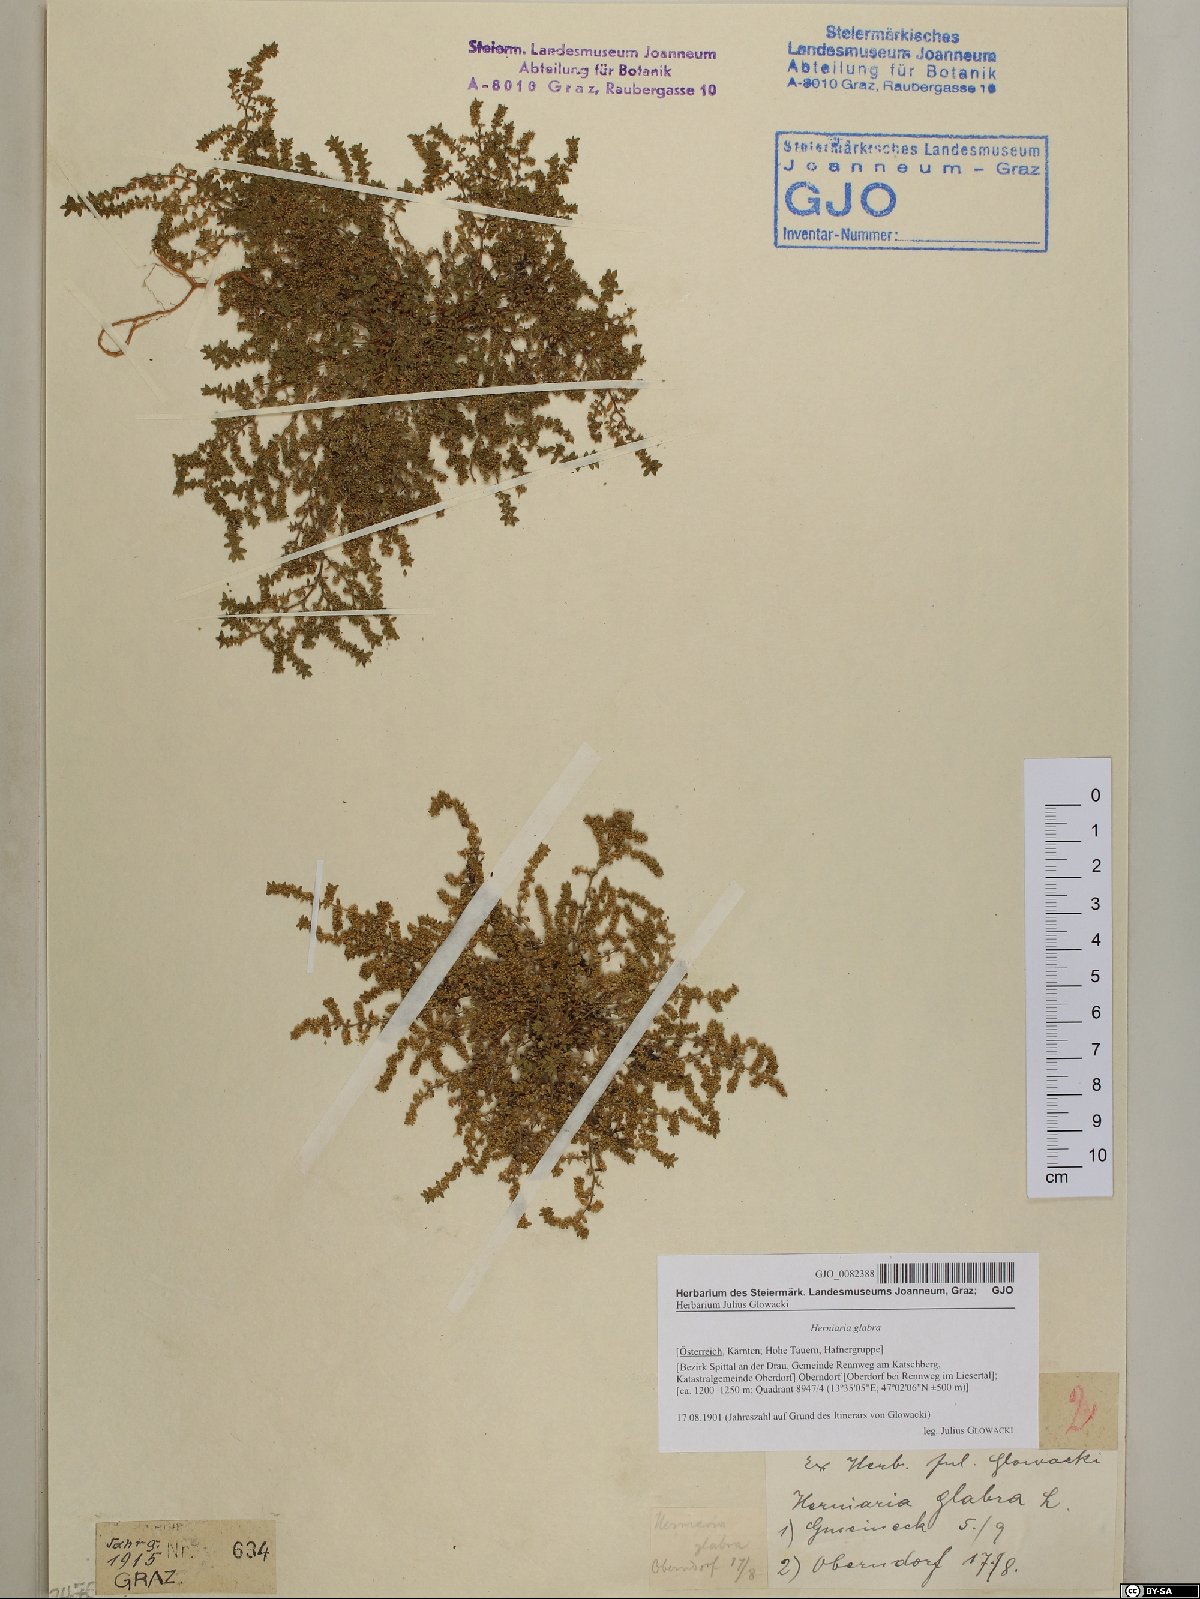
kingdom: Plantae
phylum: Tracheophyta
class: Magnoliopsida
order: Caryophyllales
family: Caryophyllaceae
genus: Herniaria
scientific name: Herniaria glabra
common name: Smooth rupturewort
